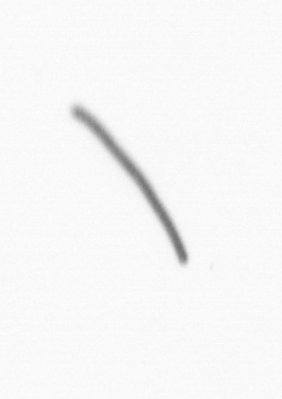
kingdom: Chromista
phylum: Ochrophyta
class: Bacillariophyceae
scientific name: Bacillariophyceae
